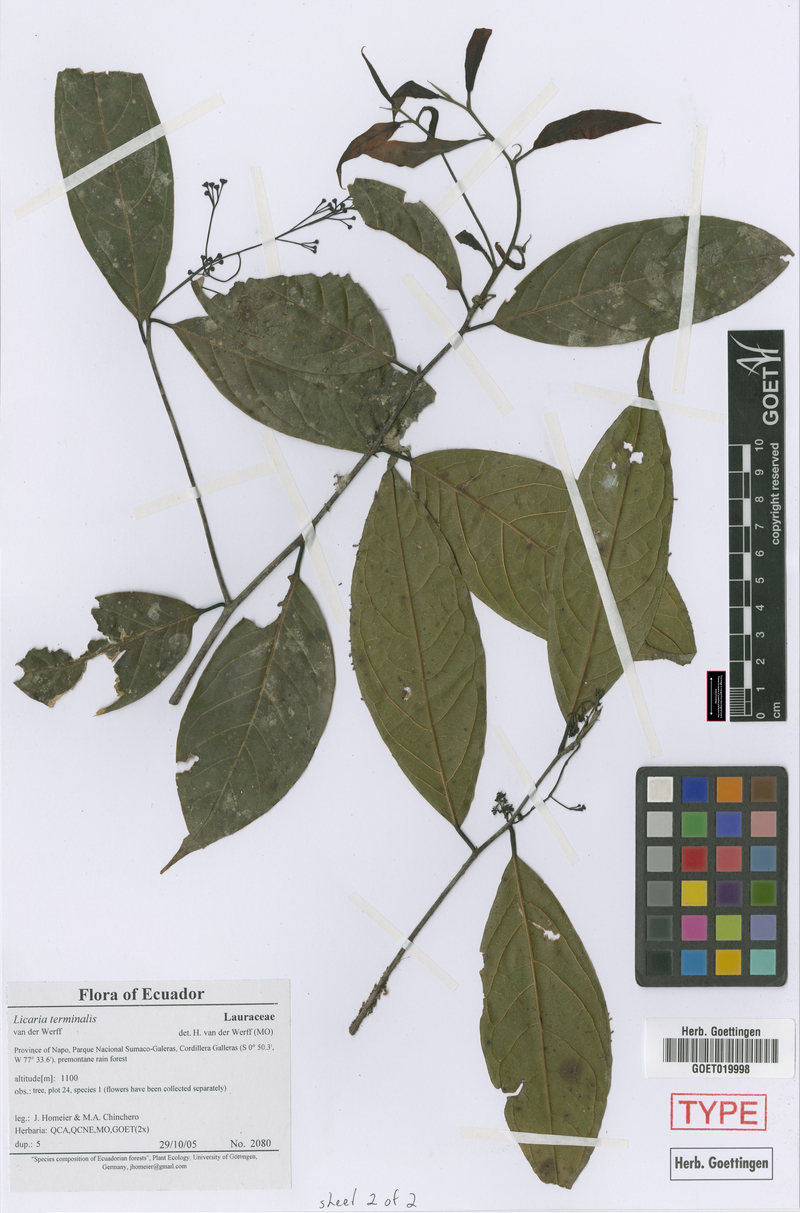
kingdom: Plantae
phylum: Tracheophyta
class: Magnoliopsida
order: Laurales
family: Lauraceae
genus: Licaria
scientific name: Licaria terminalis
